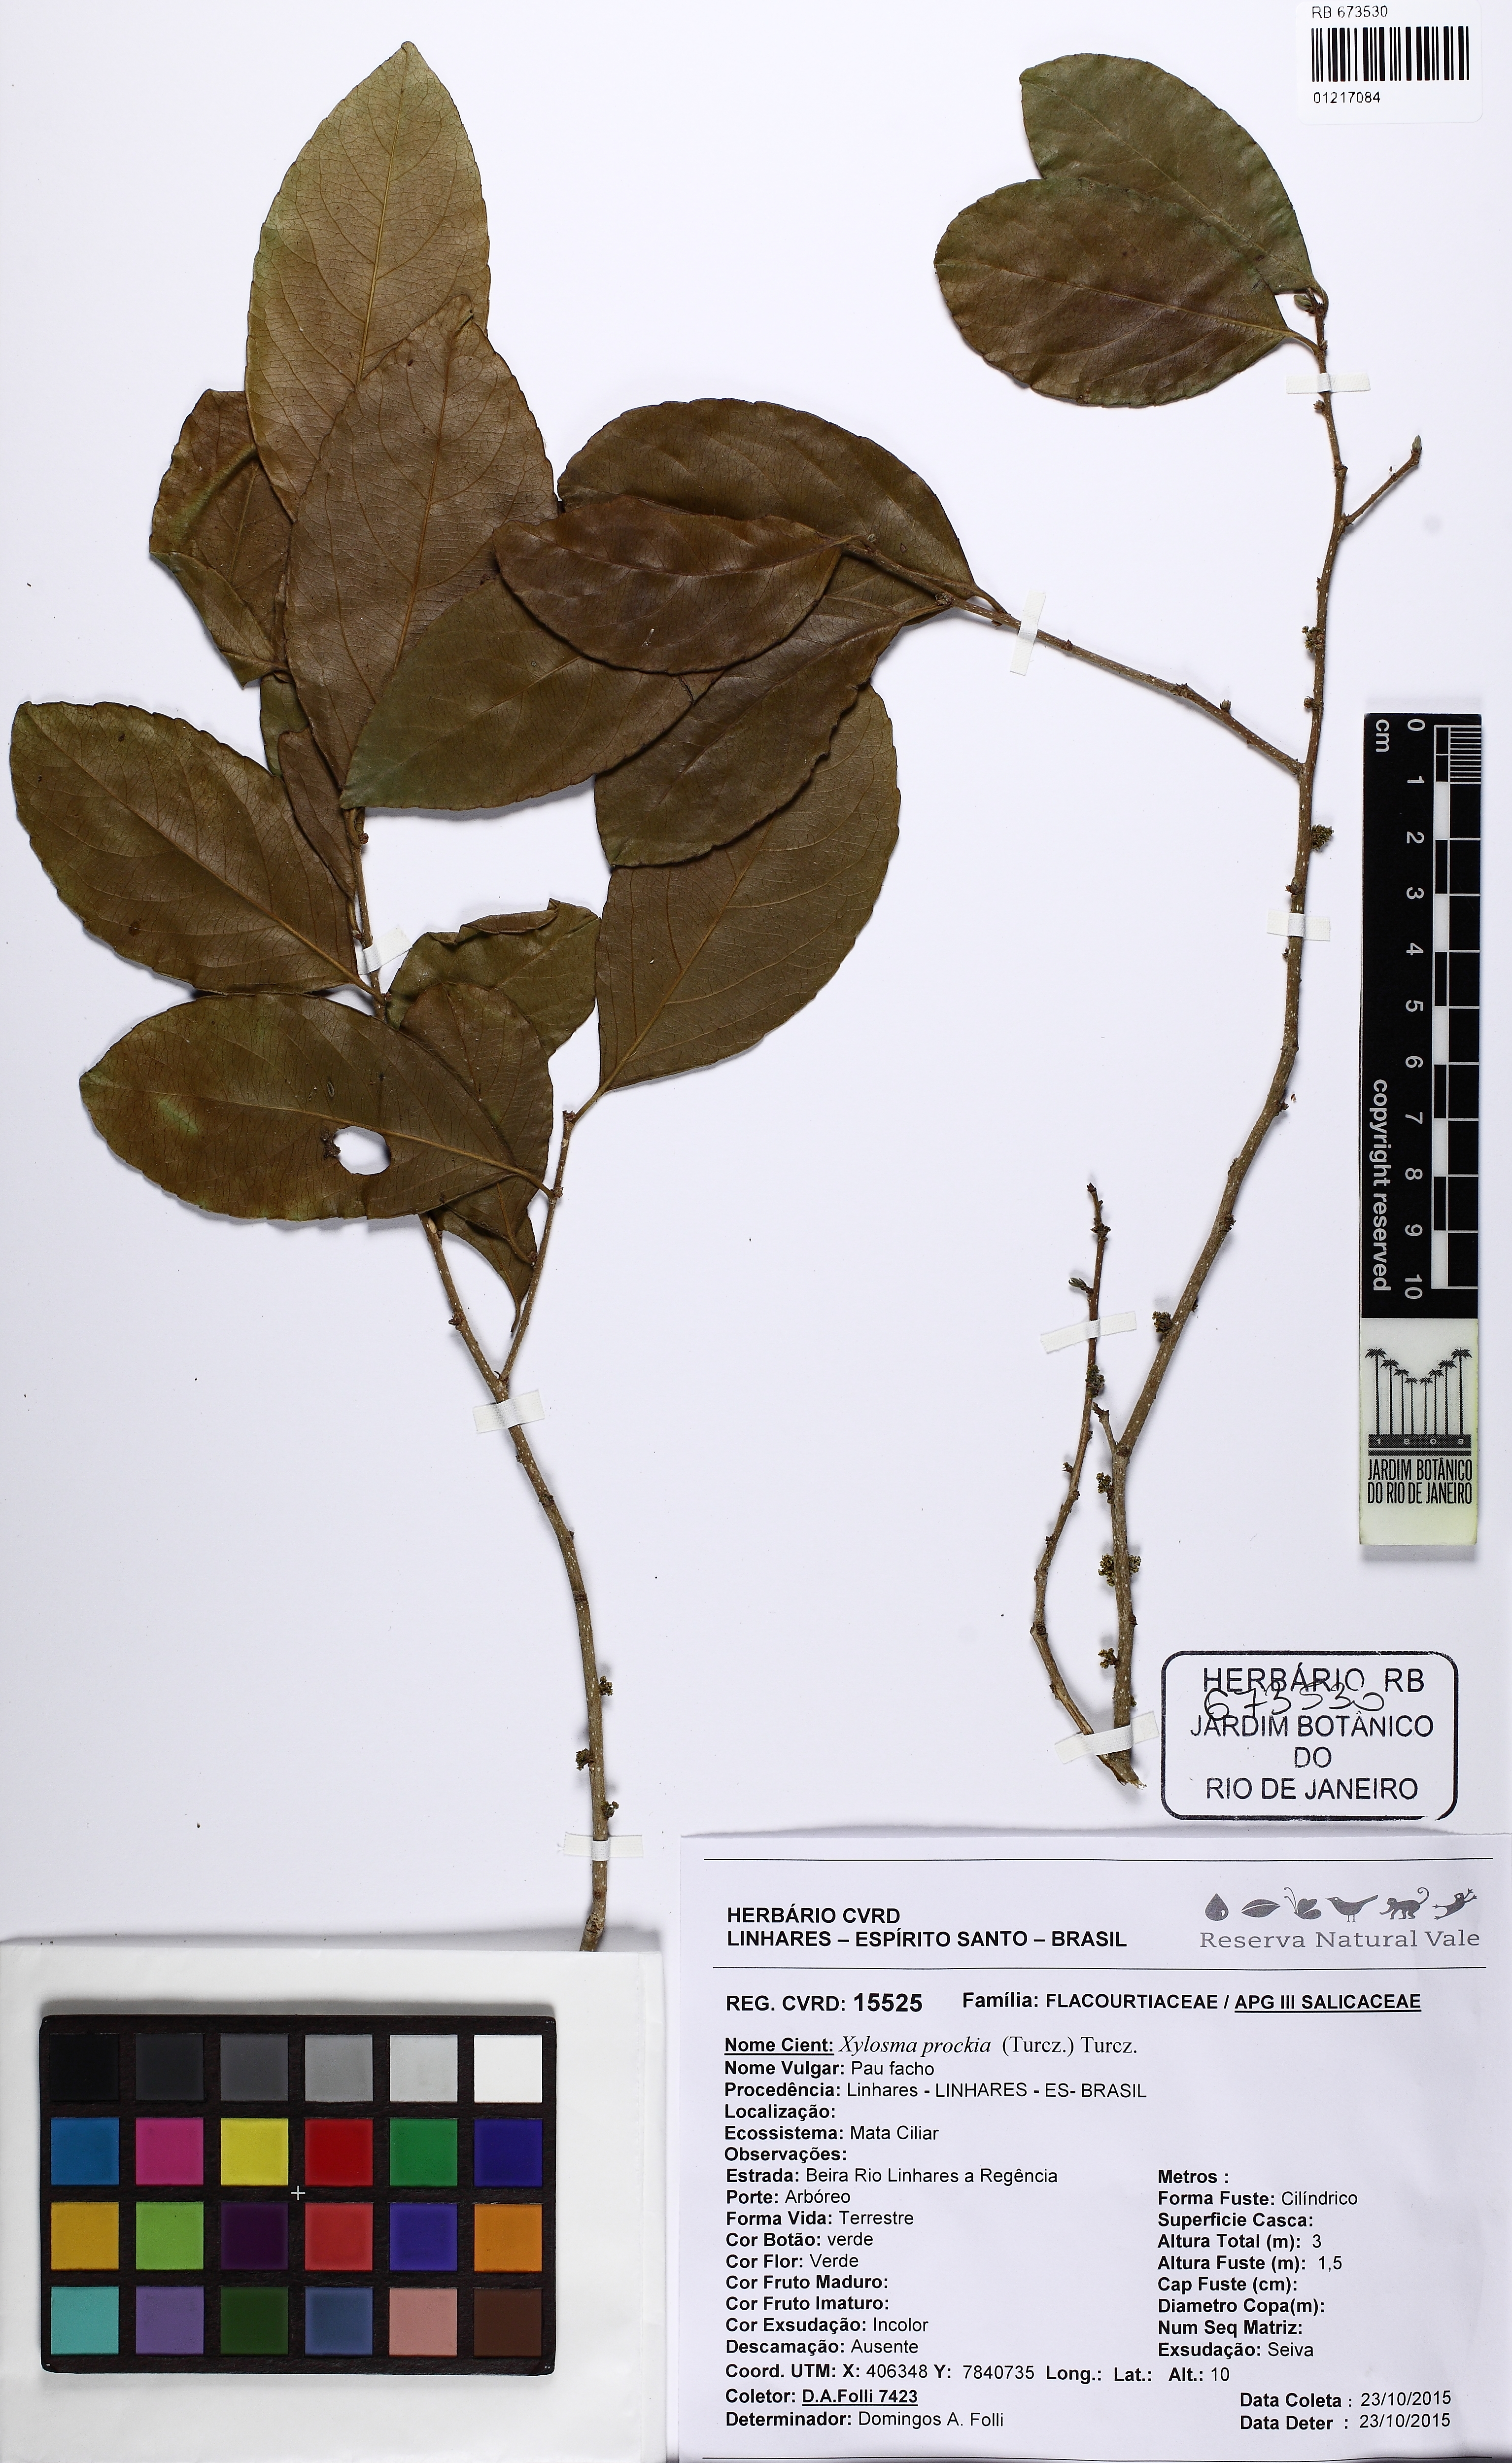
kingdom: Plantae
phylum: Tracheophyta
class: Magnoliopsida
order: Malpighiales
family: Salicaceae
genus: Xylosma
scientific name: Xylosma ciliatifolia
